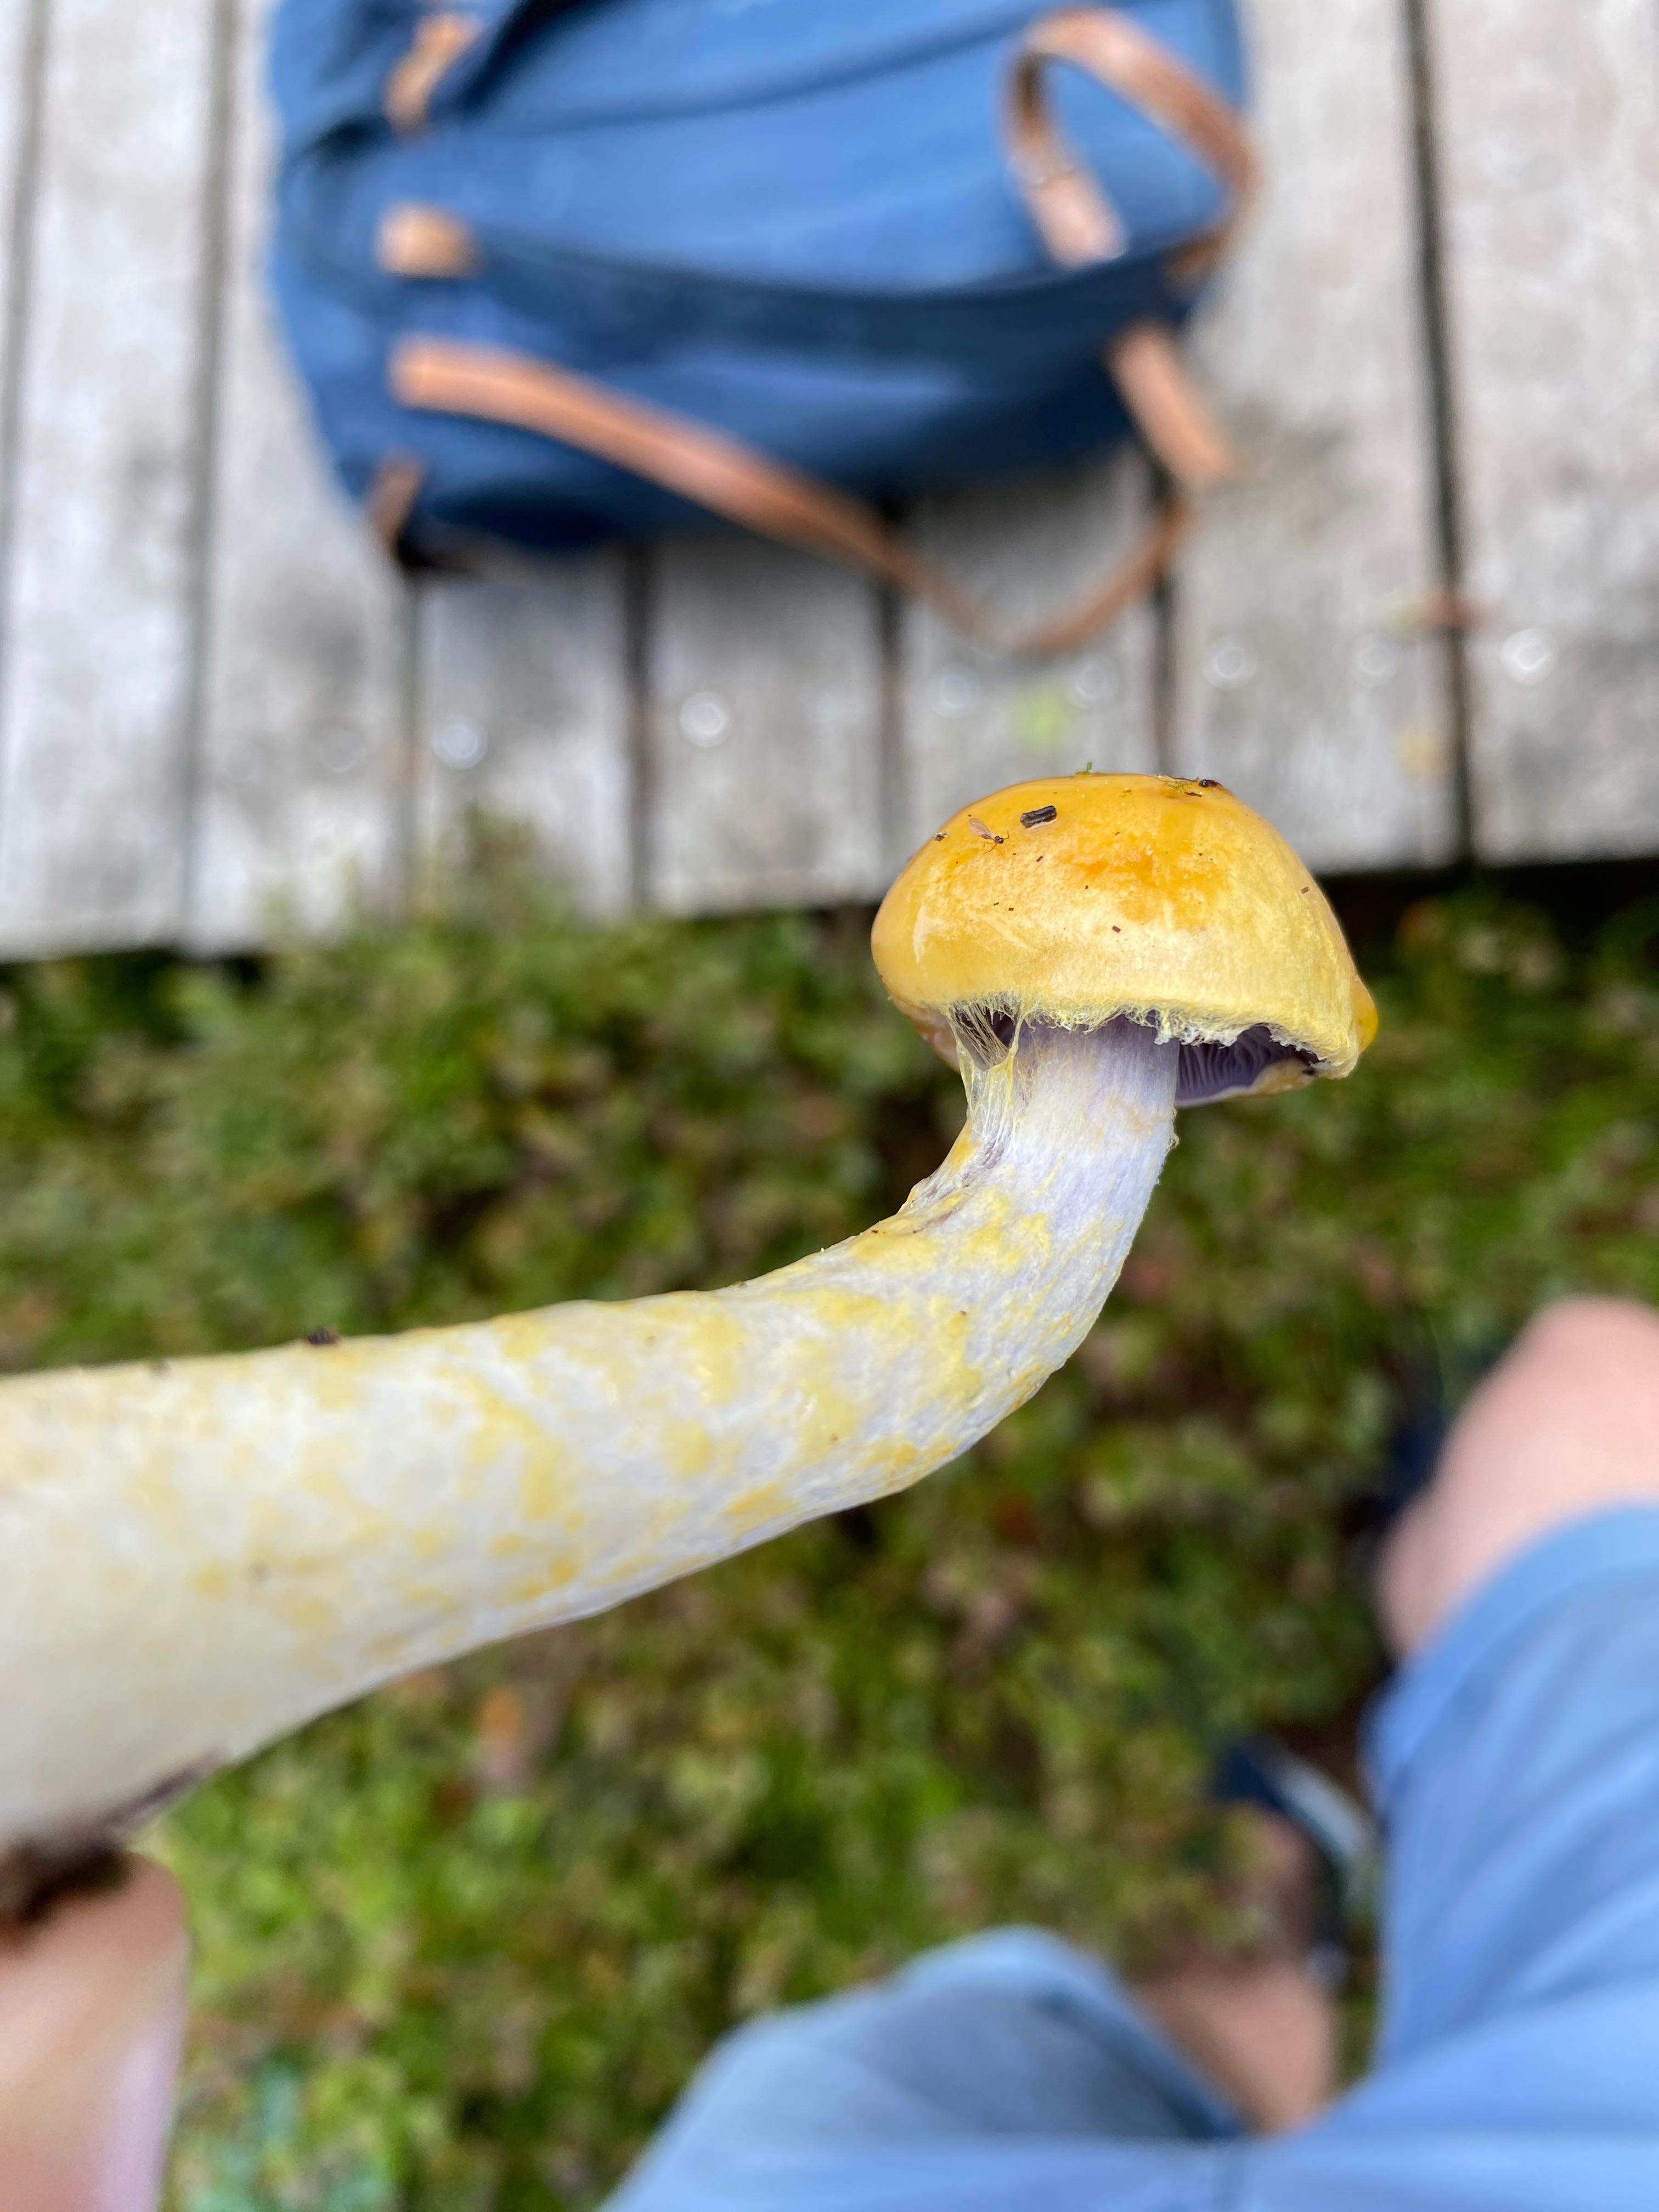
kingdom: Fungi
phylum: Basidiomycota
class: Agaricomycetes
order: Agaricales
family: Cortinariaceae
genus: Cortinarius
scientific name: Cortinarius delibutus
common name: gul slørhat
